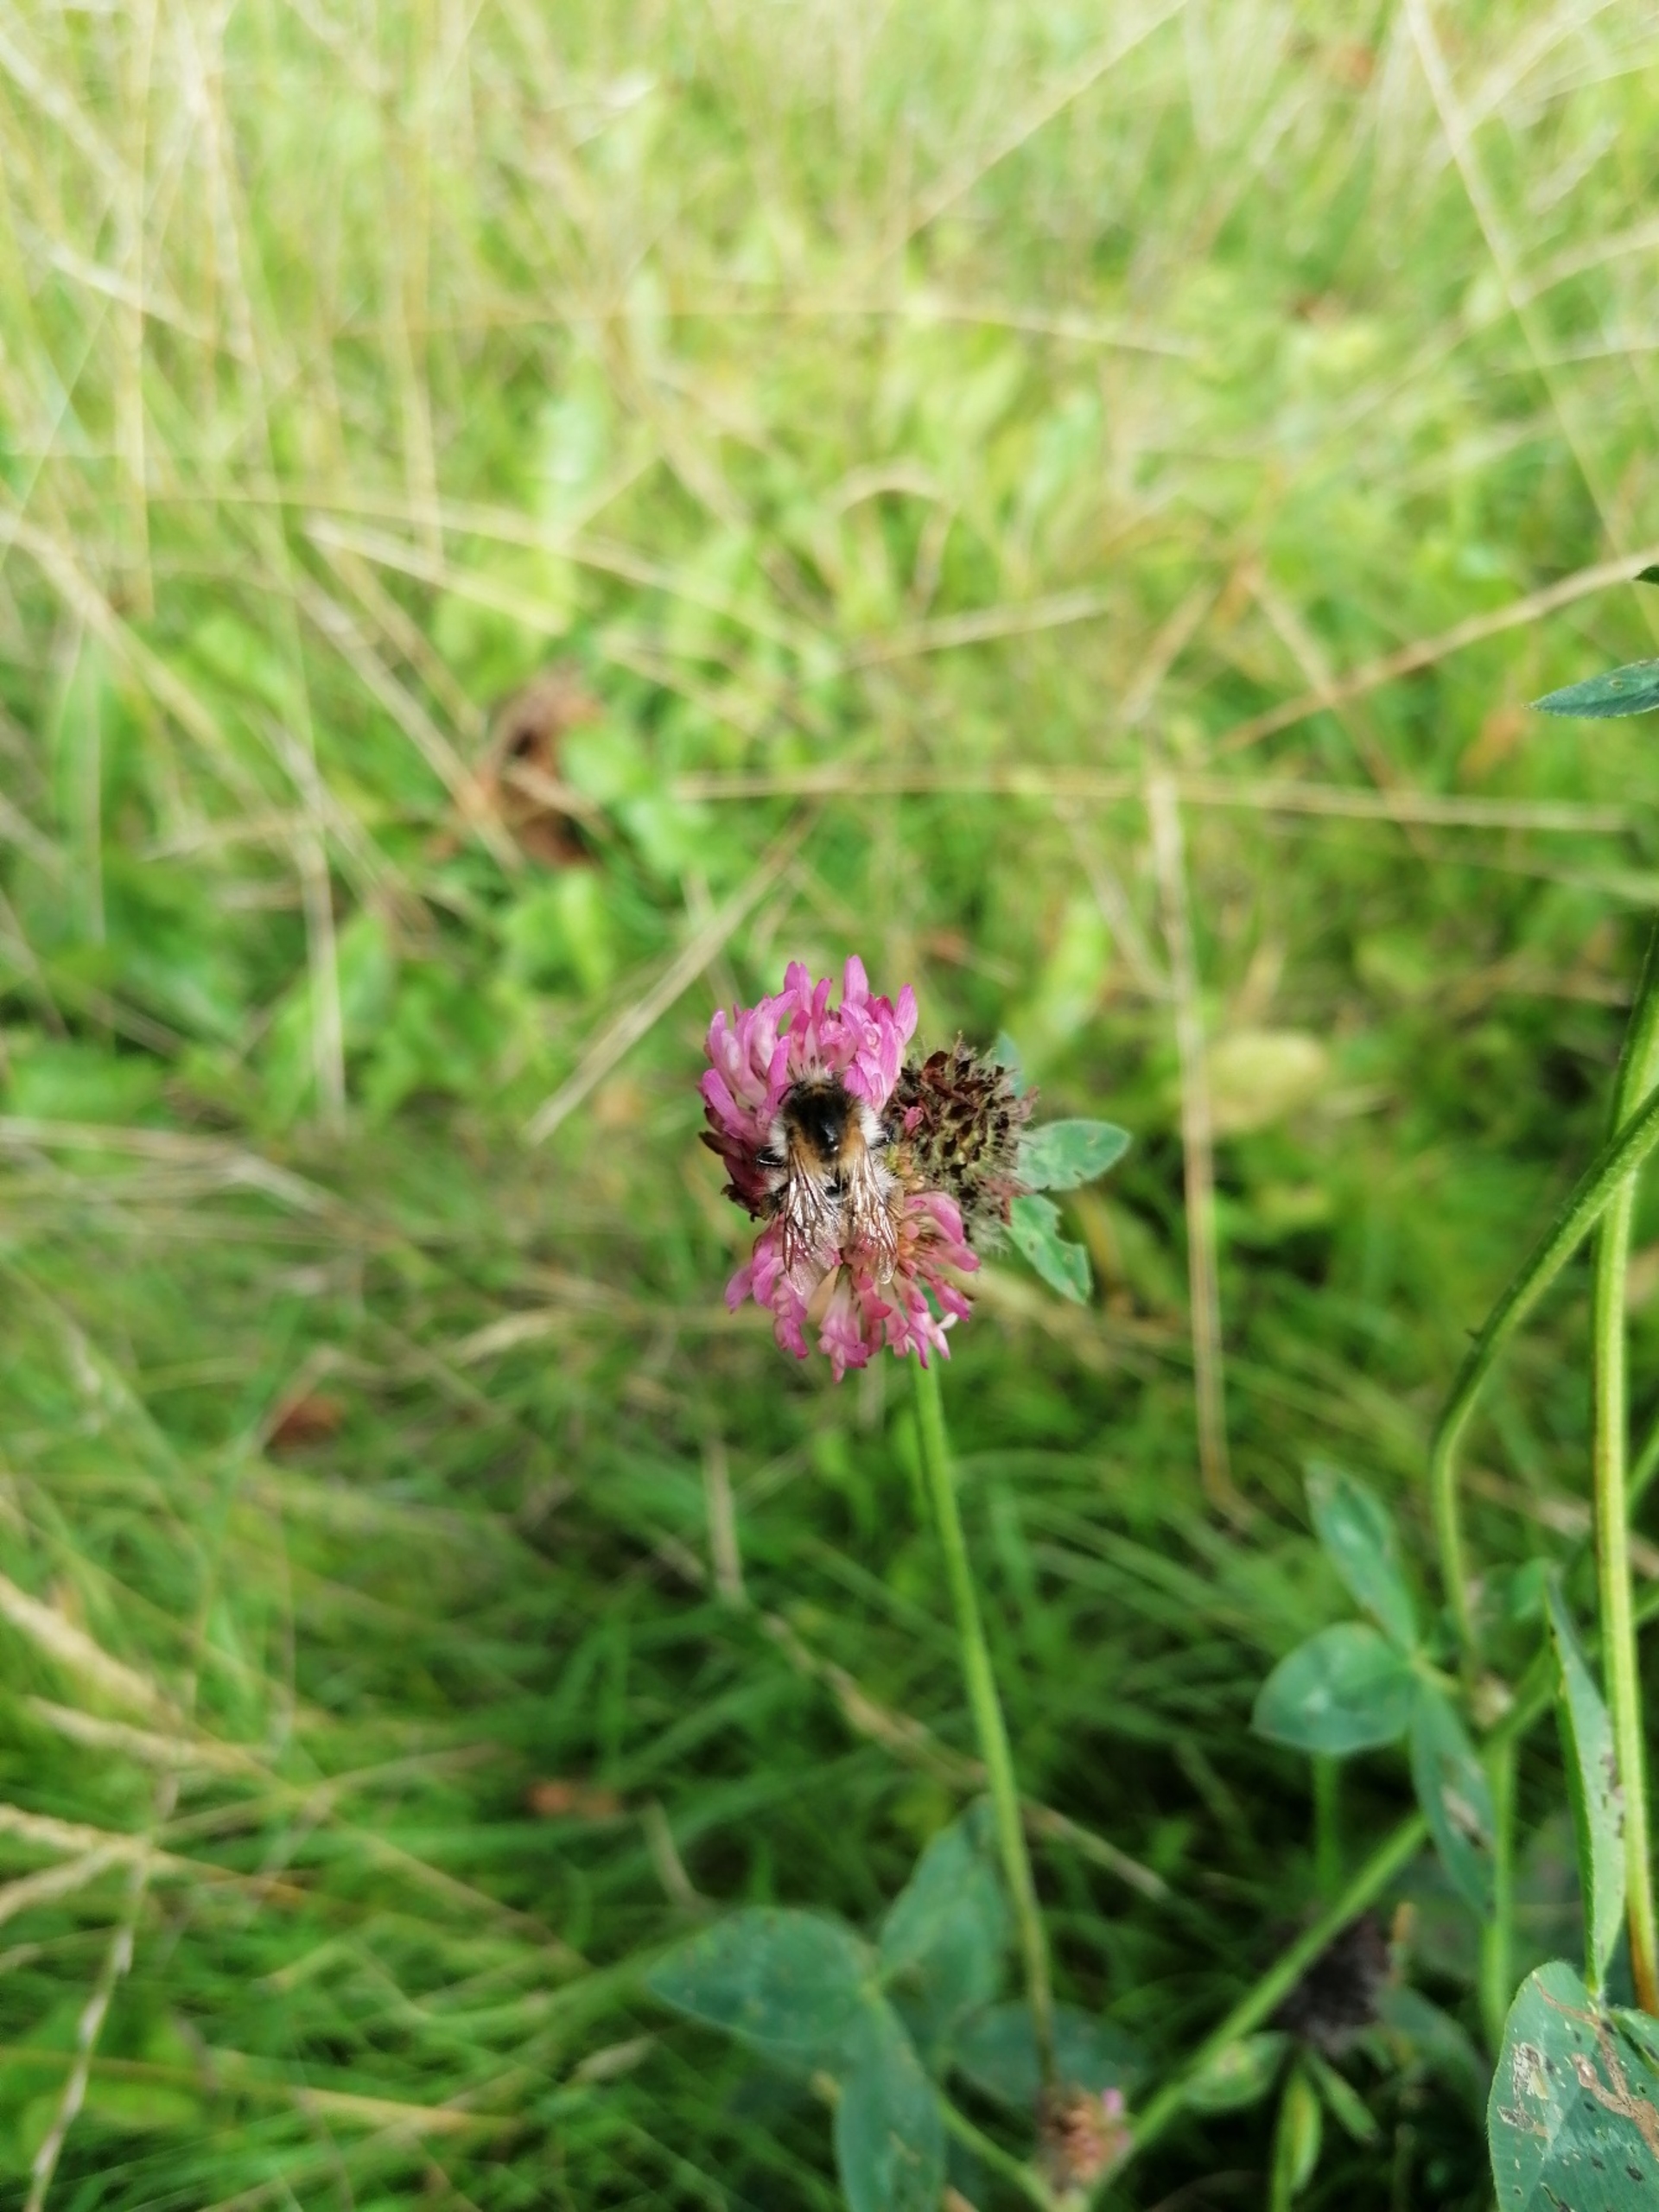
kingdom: Animalia
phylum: Arthropoda
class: Insecta
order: Hymenoptera
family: Apidae
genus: Bombus
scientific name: Bombus pascuorum
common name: Agerhumle
